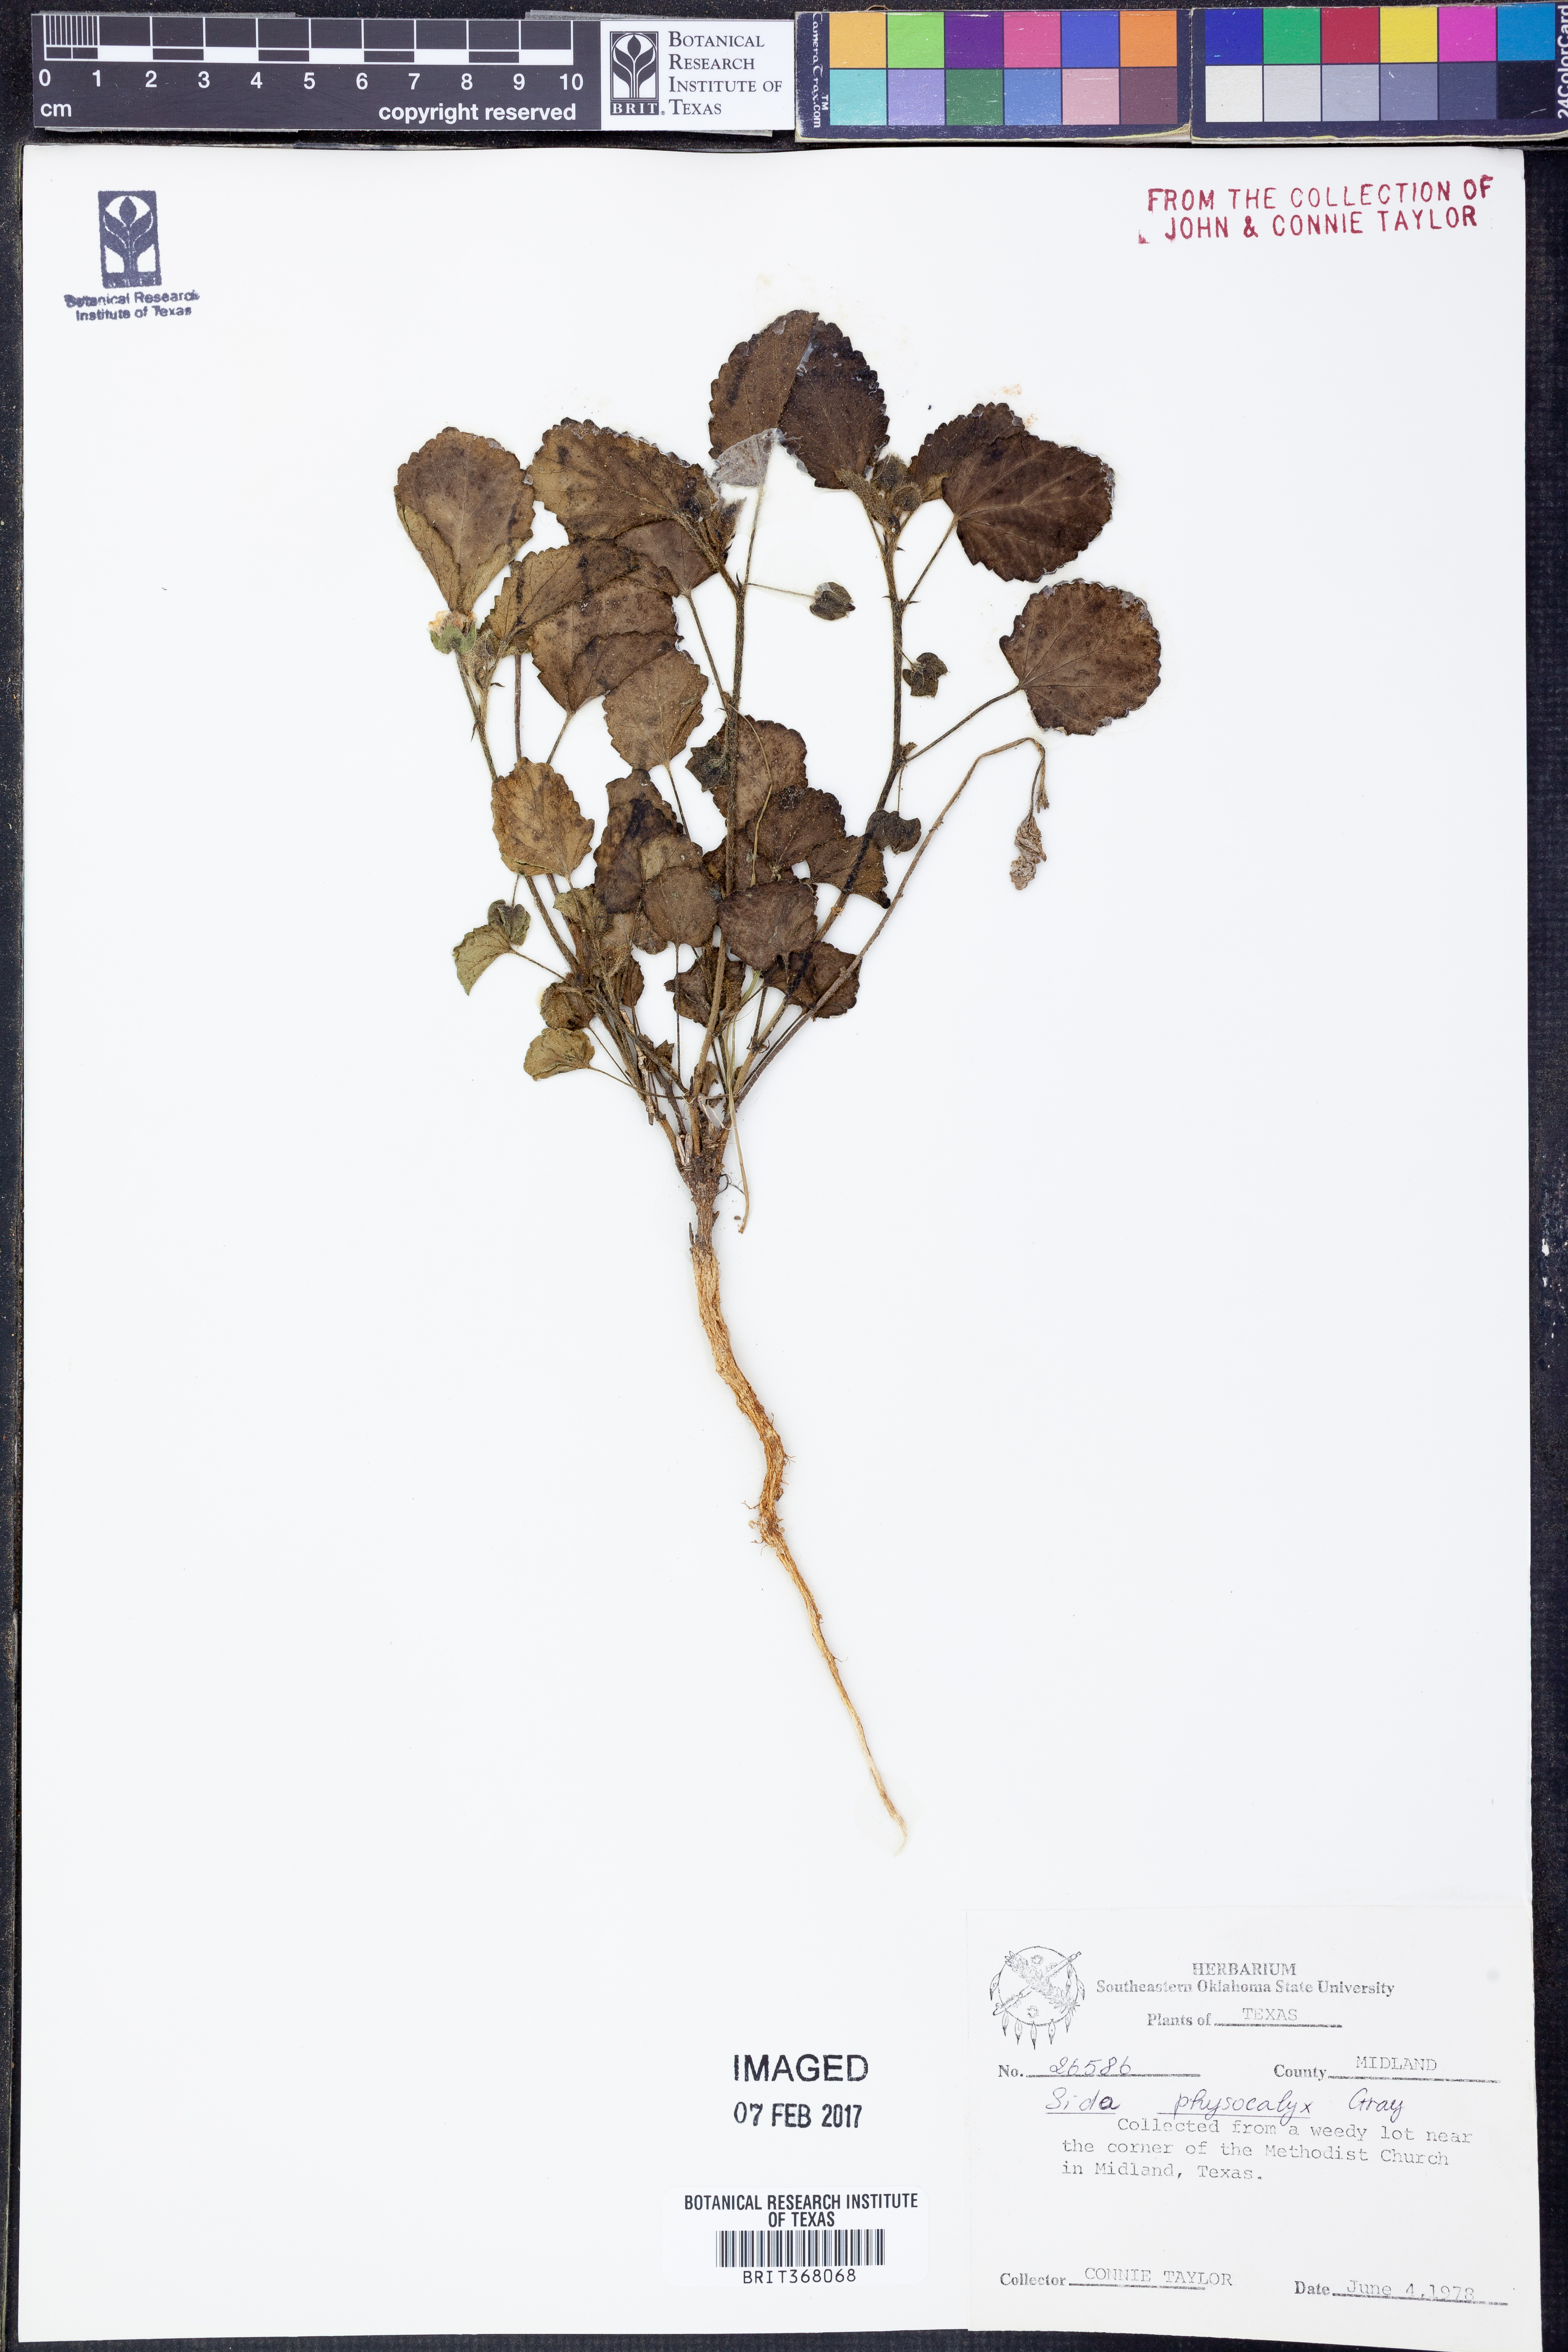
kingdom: Plantae
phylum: Tracheophyta
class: Magnoliopsida
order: Malvales
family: Malvaceae
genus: Rhynchosida
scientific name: Rhynchosida physocalyx
